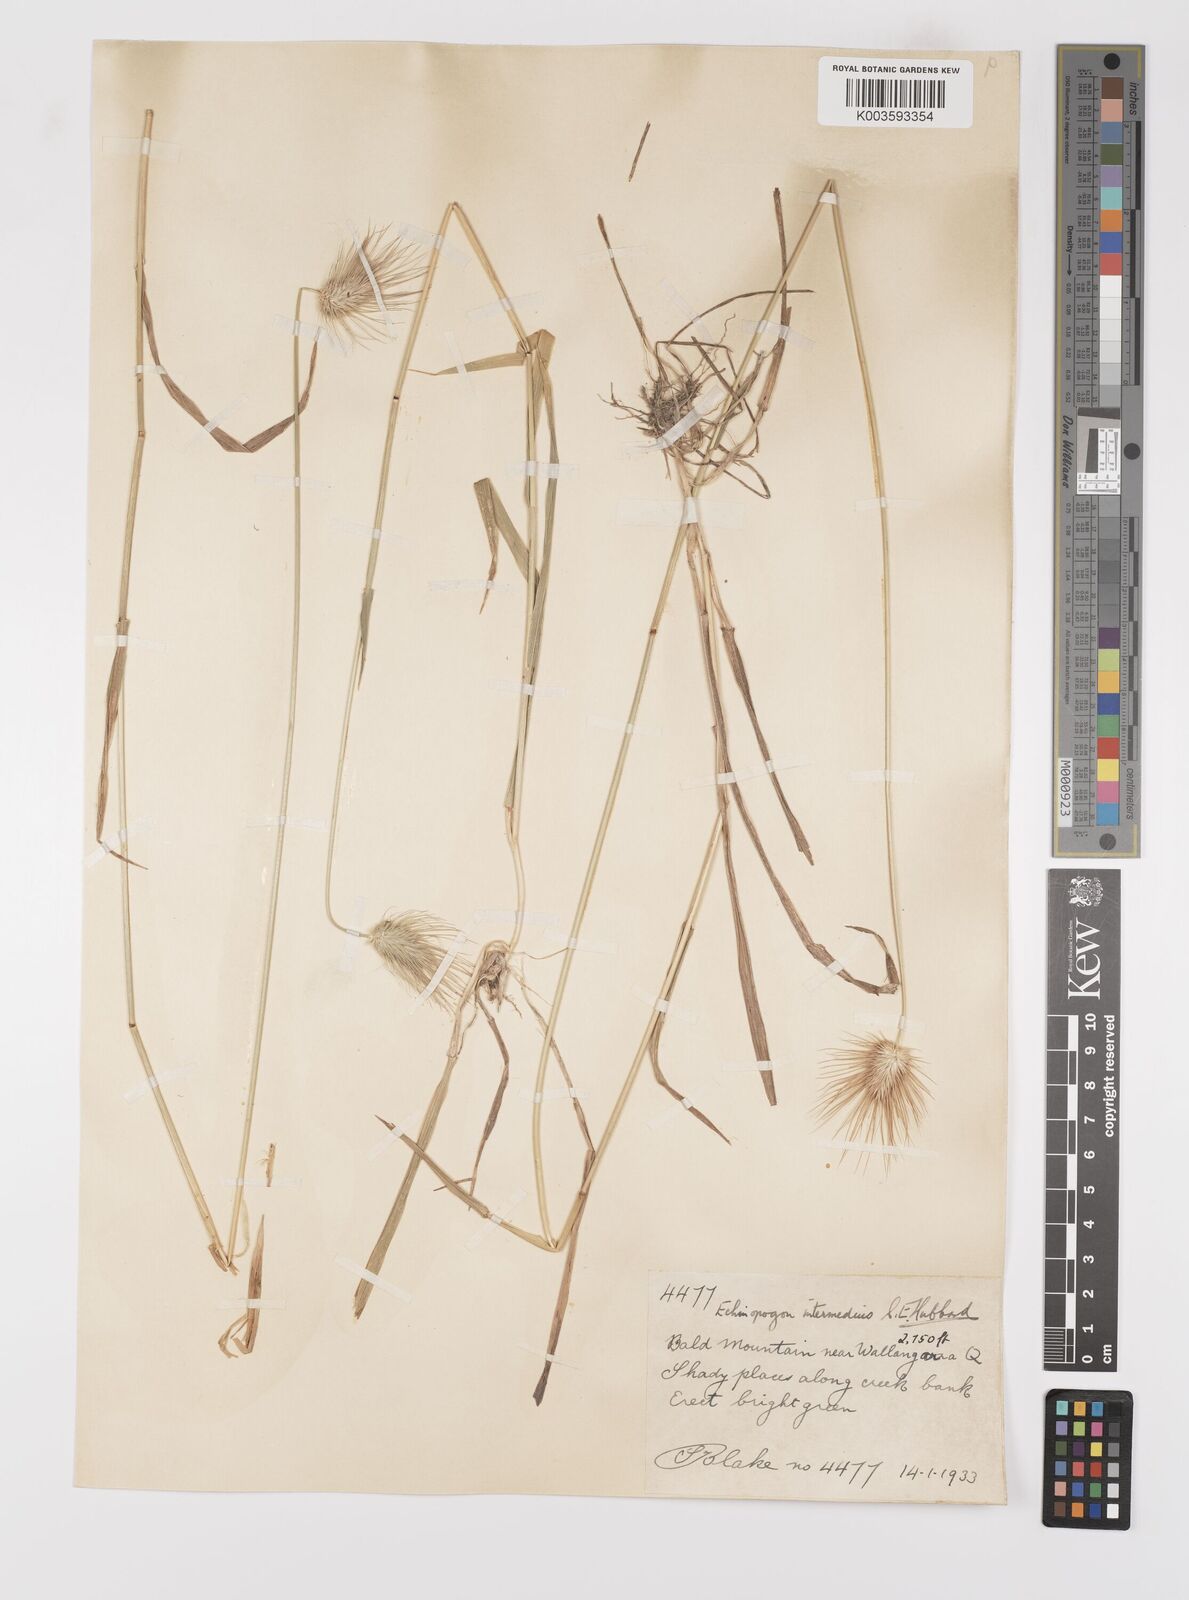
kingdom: Plantae
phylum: Tracheophyta
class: Liliopsida
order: Poales
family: Poaceae
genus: Echinopogon
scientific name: Echinopogon intermedius
